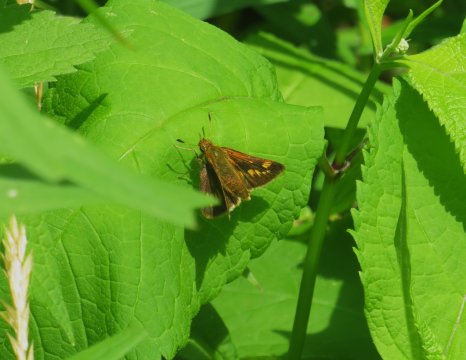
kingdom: Animalia
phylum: Arthropoda
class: Insecta
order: Lepidoptera
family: Hesperiidae
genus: Polites
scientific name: Polites
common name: Long Dash Skipper
